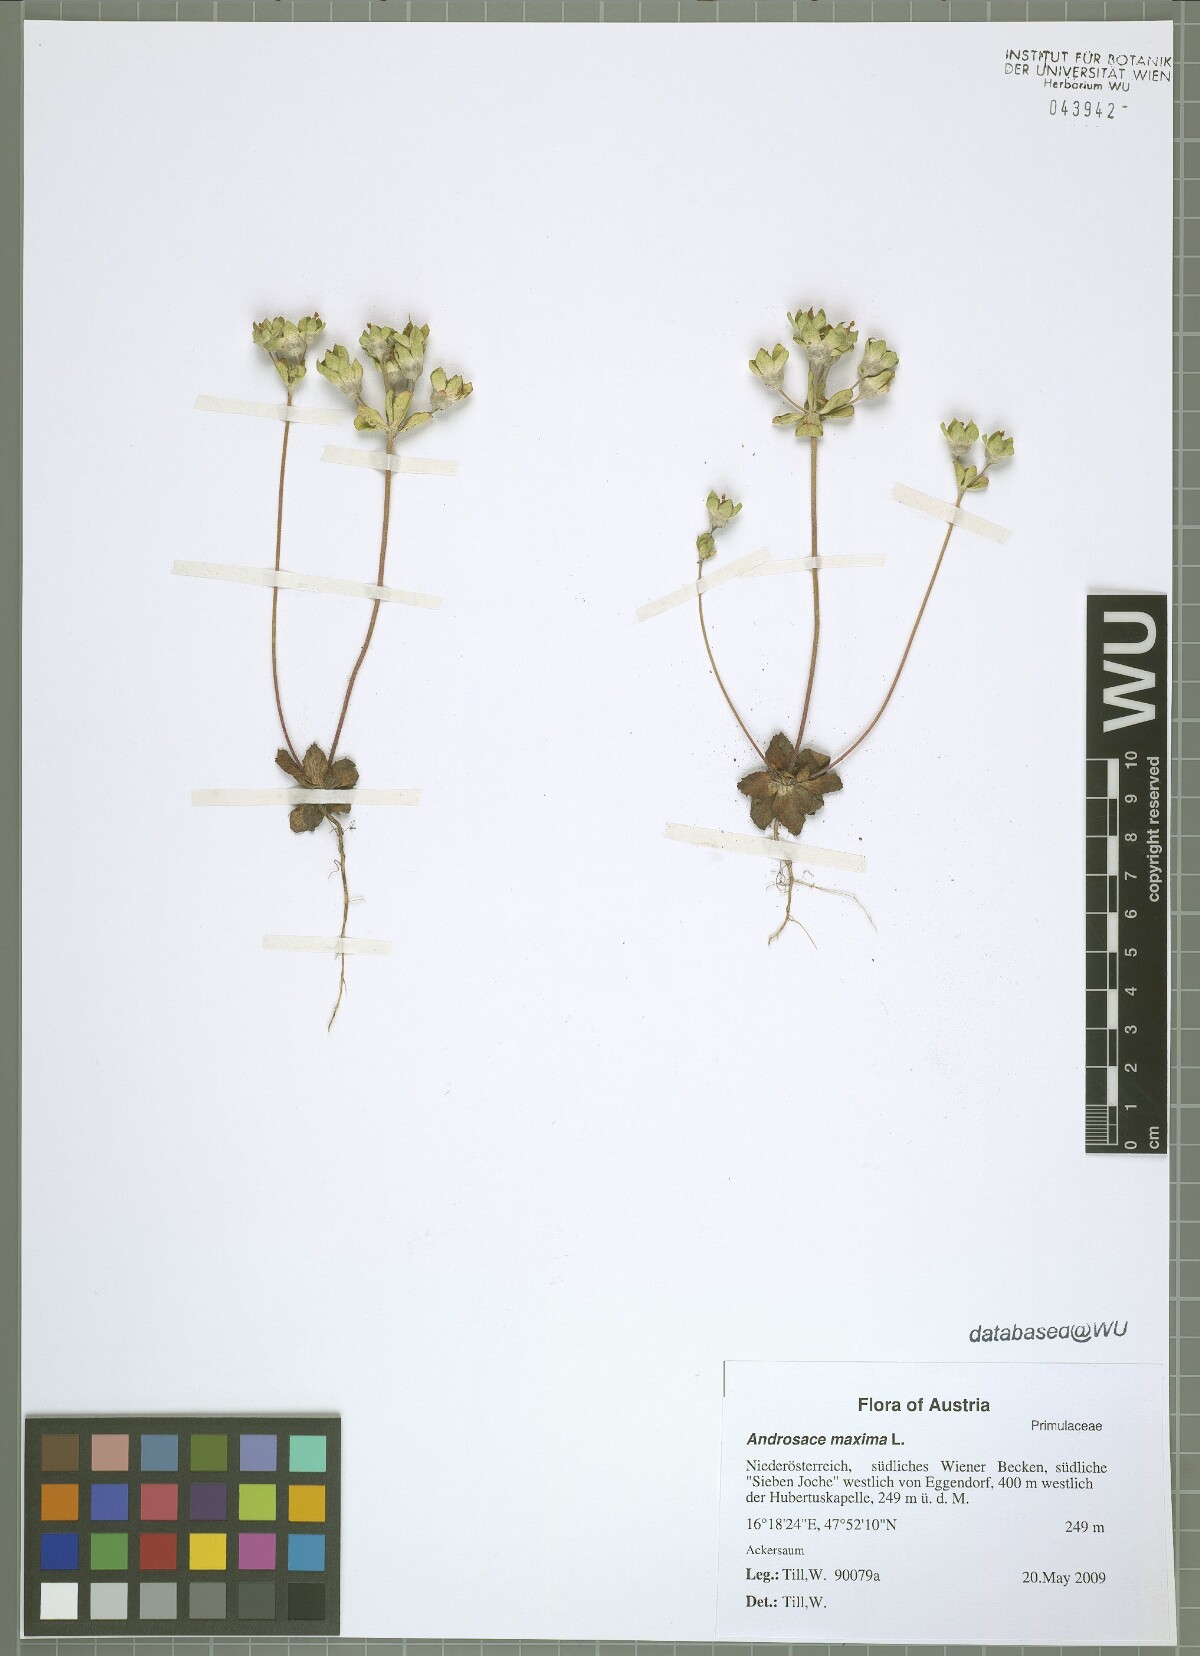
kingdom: Plantae
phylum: Tracheophyta
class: Magnoliopsida
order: Ericales
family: Primulaceae
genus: Androsace
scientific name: Androsace maxima
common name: Annual androsace
